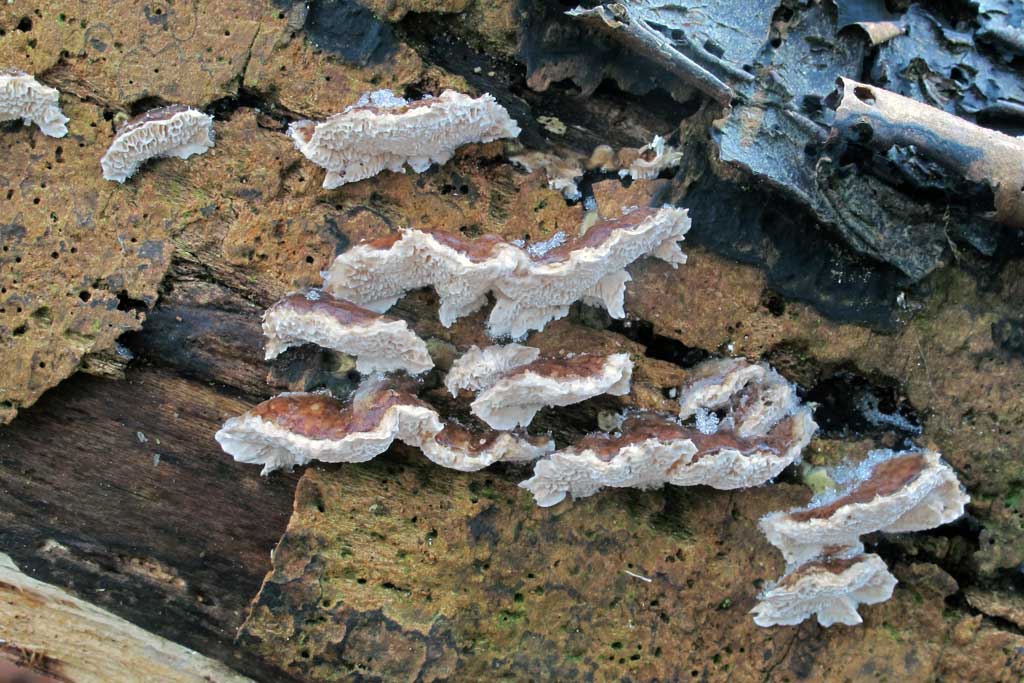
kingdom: Fungi
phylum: Basidiomycota
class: Agaricomycetes
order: Polyporales
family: Polyporaceae
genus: Trametes
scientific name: Trametes versicolor
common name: broget læderporesvamp
